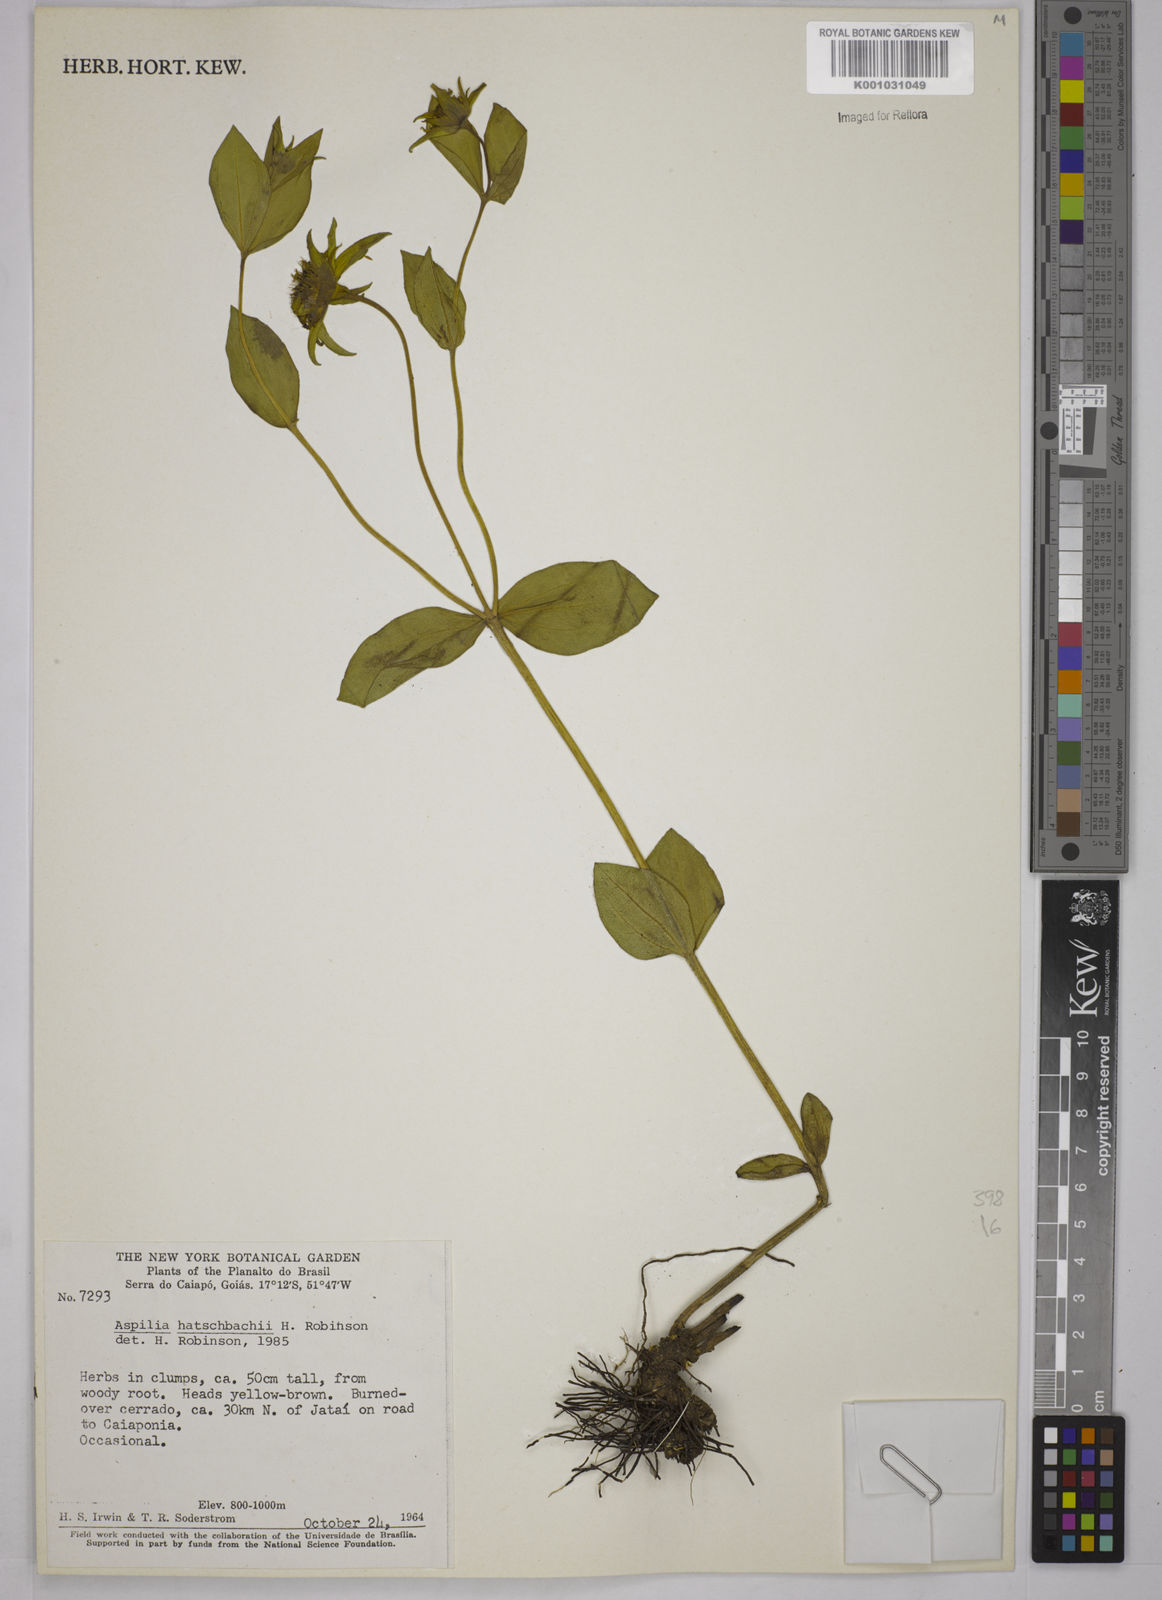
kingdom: Plantae
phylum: Tracheophyta
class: Magnoliopsida
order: Asterales
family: Asteraceae
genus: Aspilia
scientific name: Aspilia hatschbachii
